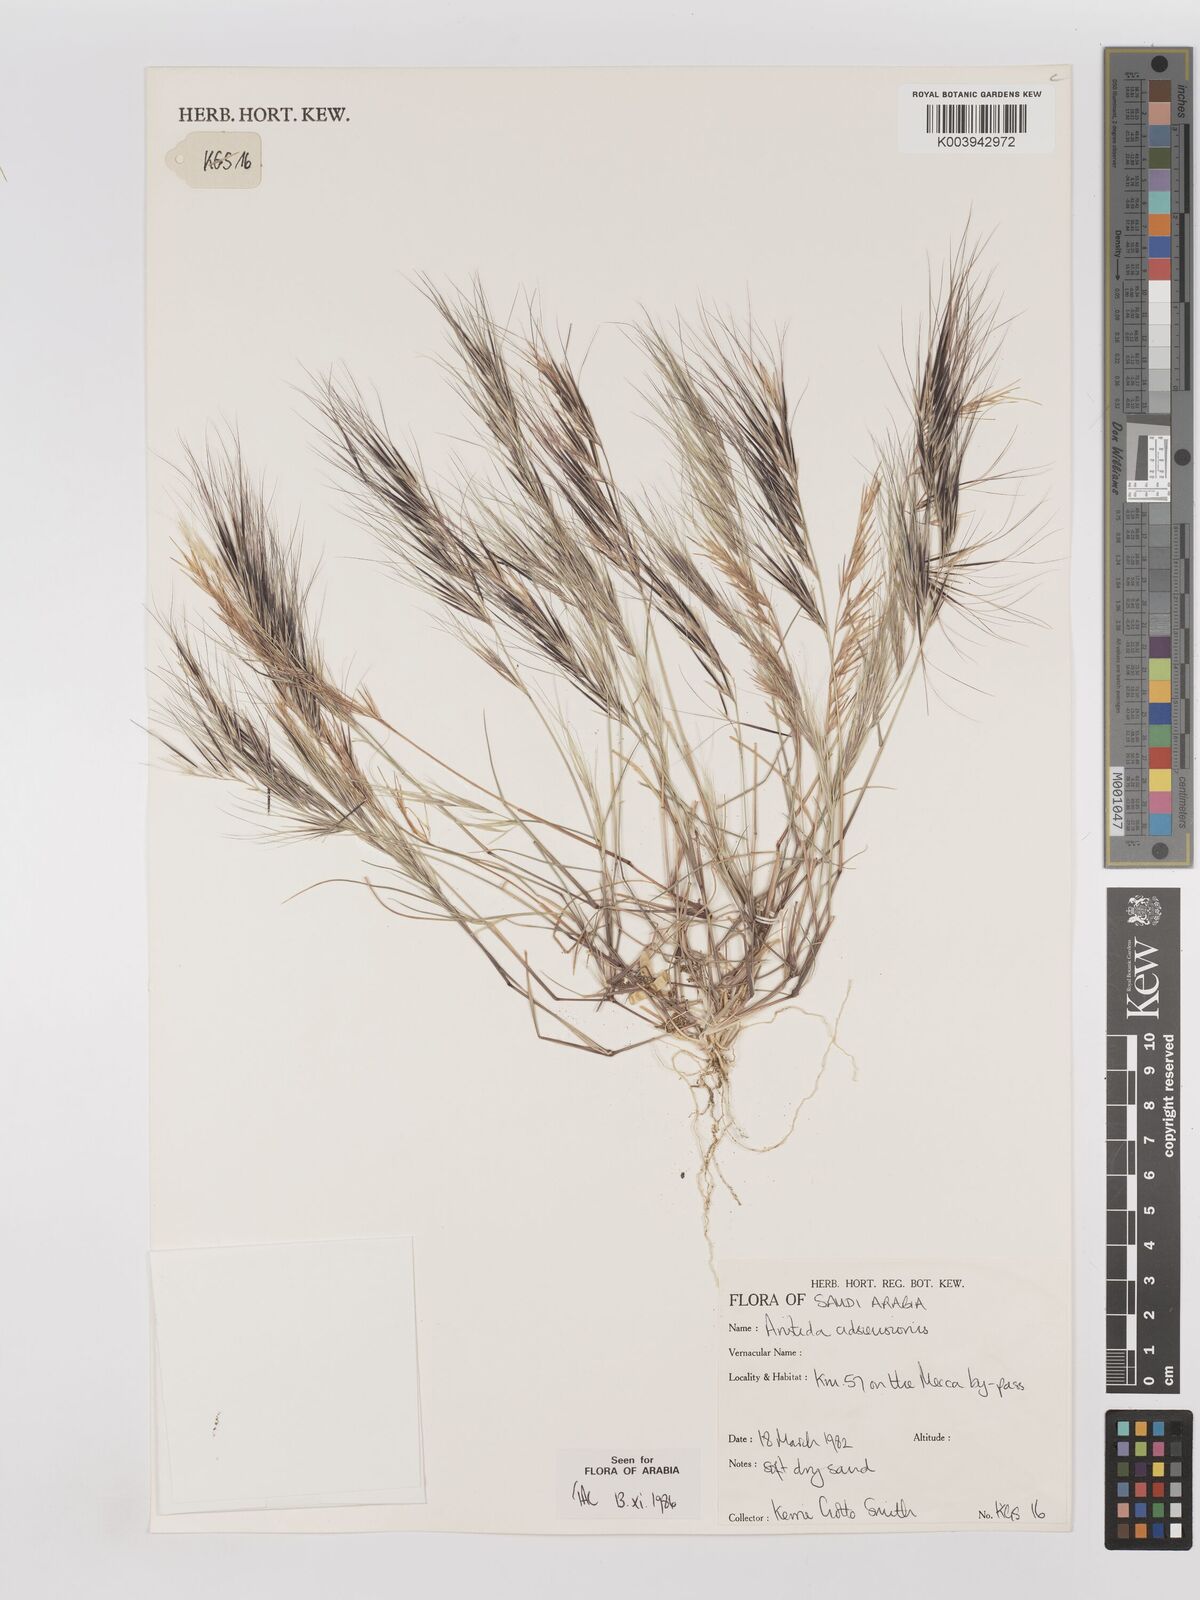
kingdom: Plantae
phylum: Tracheophyta
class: Liliopsida
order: Poales
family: Poaceae
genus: Aristida
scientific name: Aristida adscensionis
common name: Sixweeks threeawn
